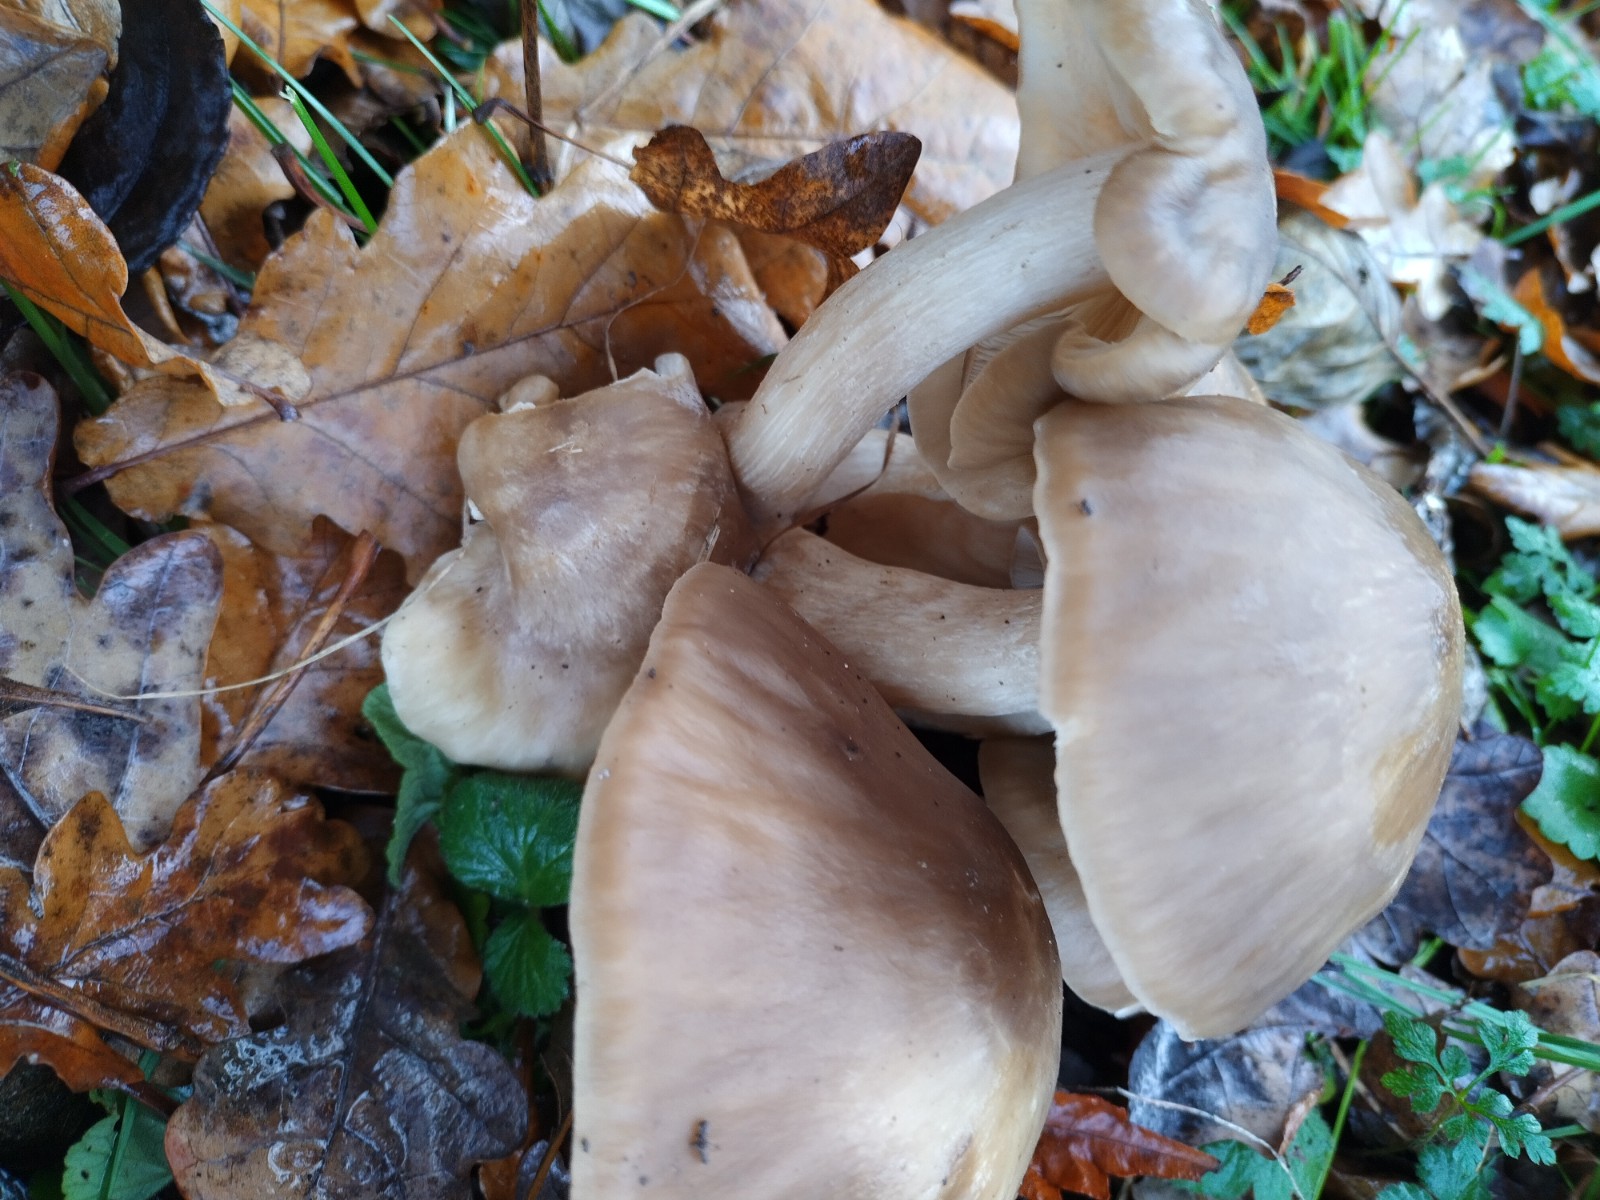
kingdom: Fungi
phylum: Basidiomycota
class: Agaricomycetes
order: Agaricales
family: Lyophyllaceae
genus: Lyophyllum
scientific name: Lyophyllum decastes
